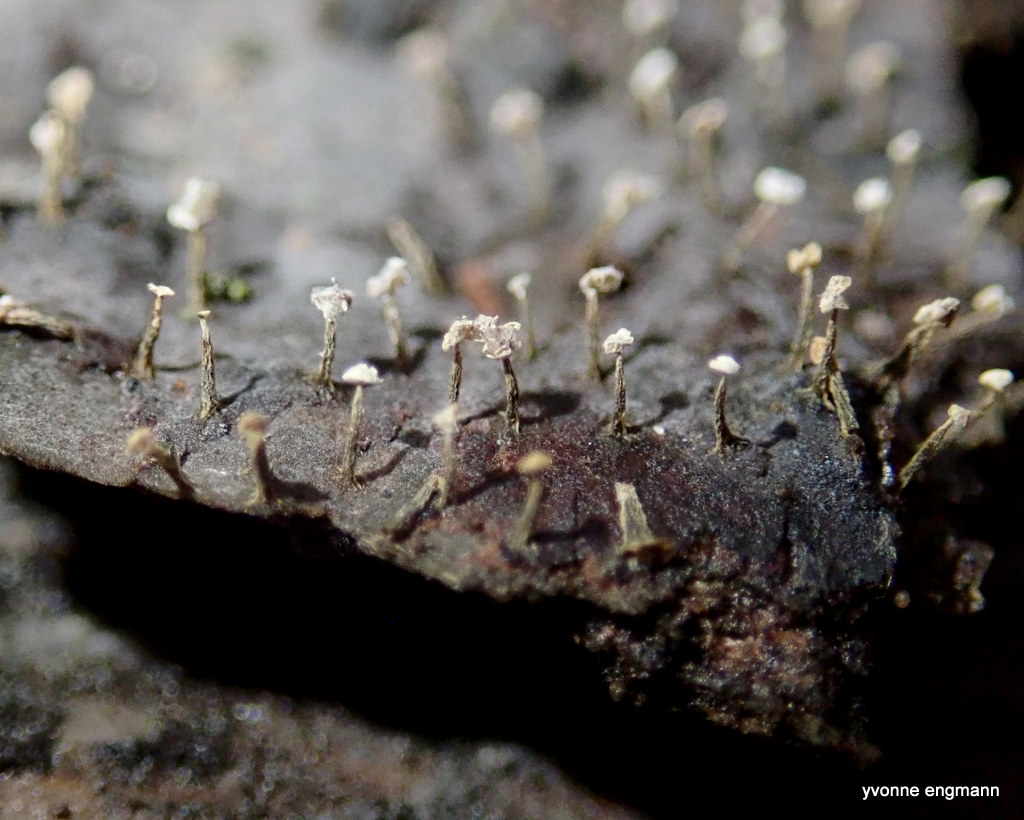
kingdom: Protozoa
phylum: Mycetozoa
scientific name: Mycetozoa
